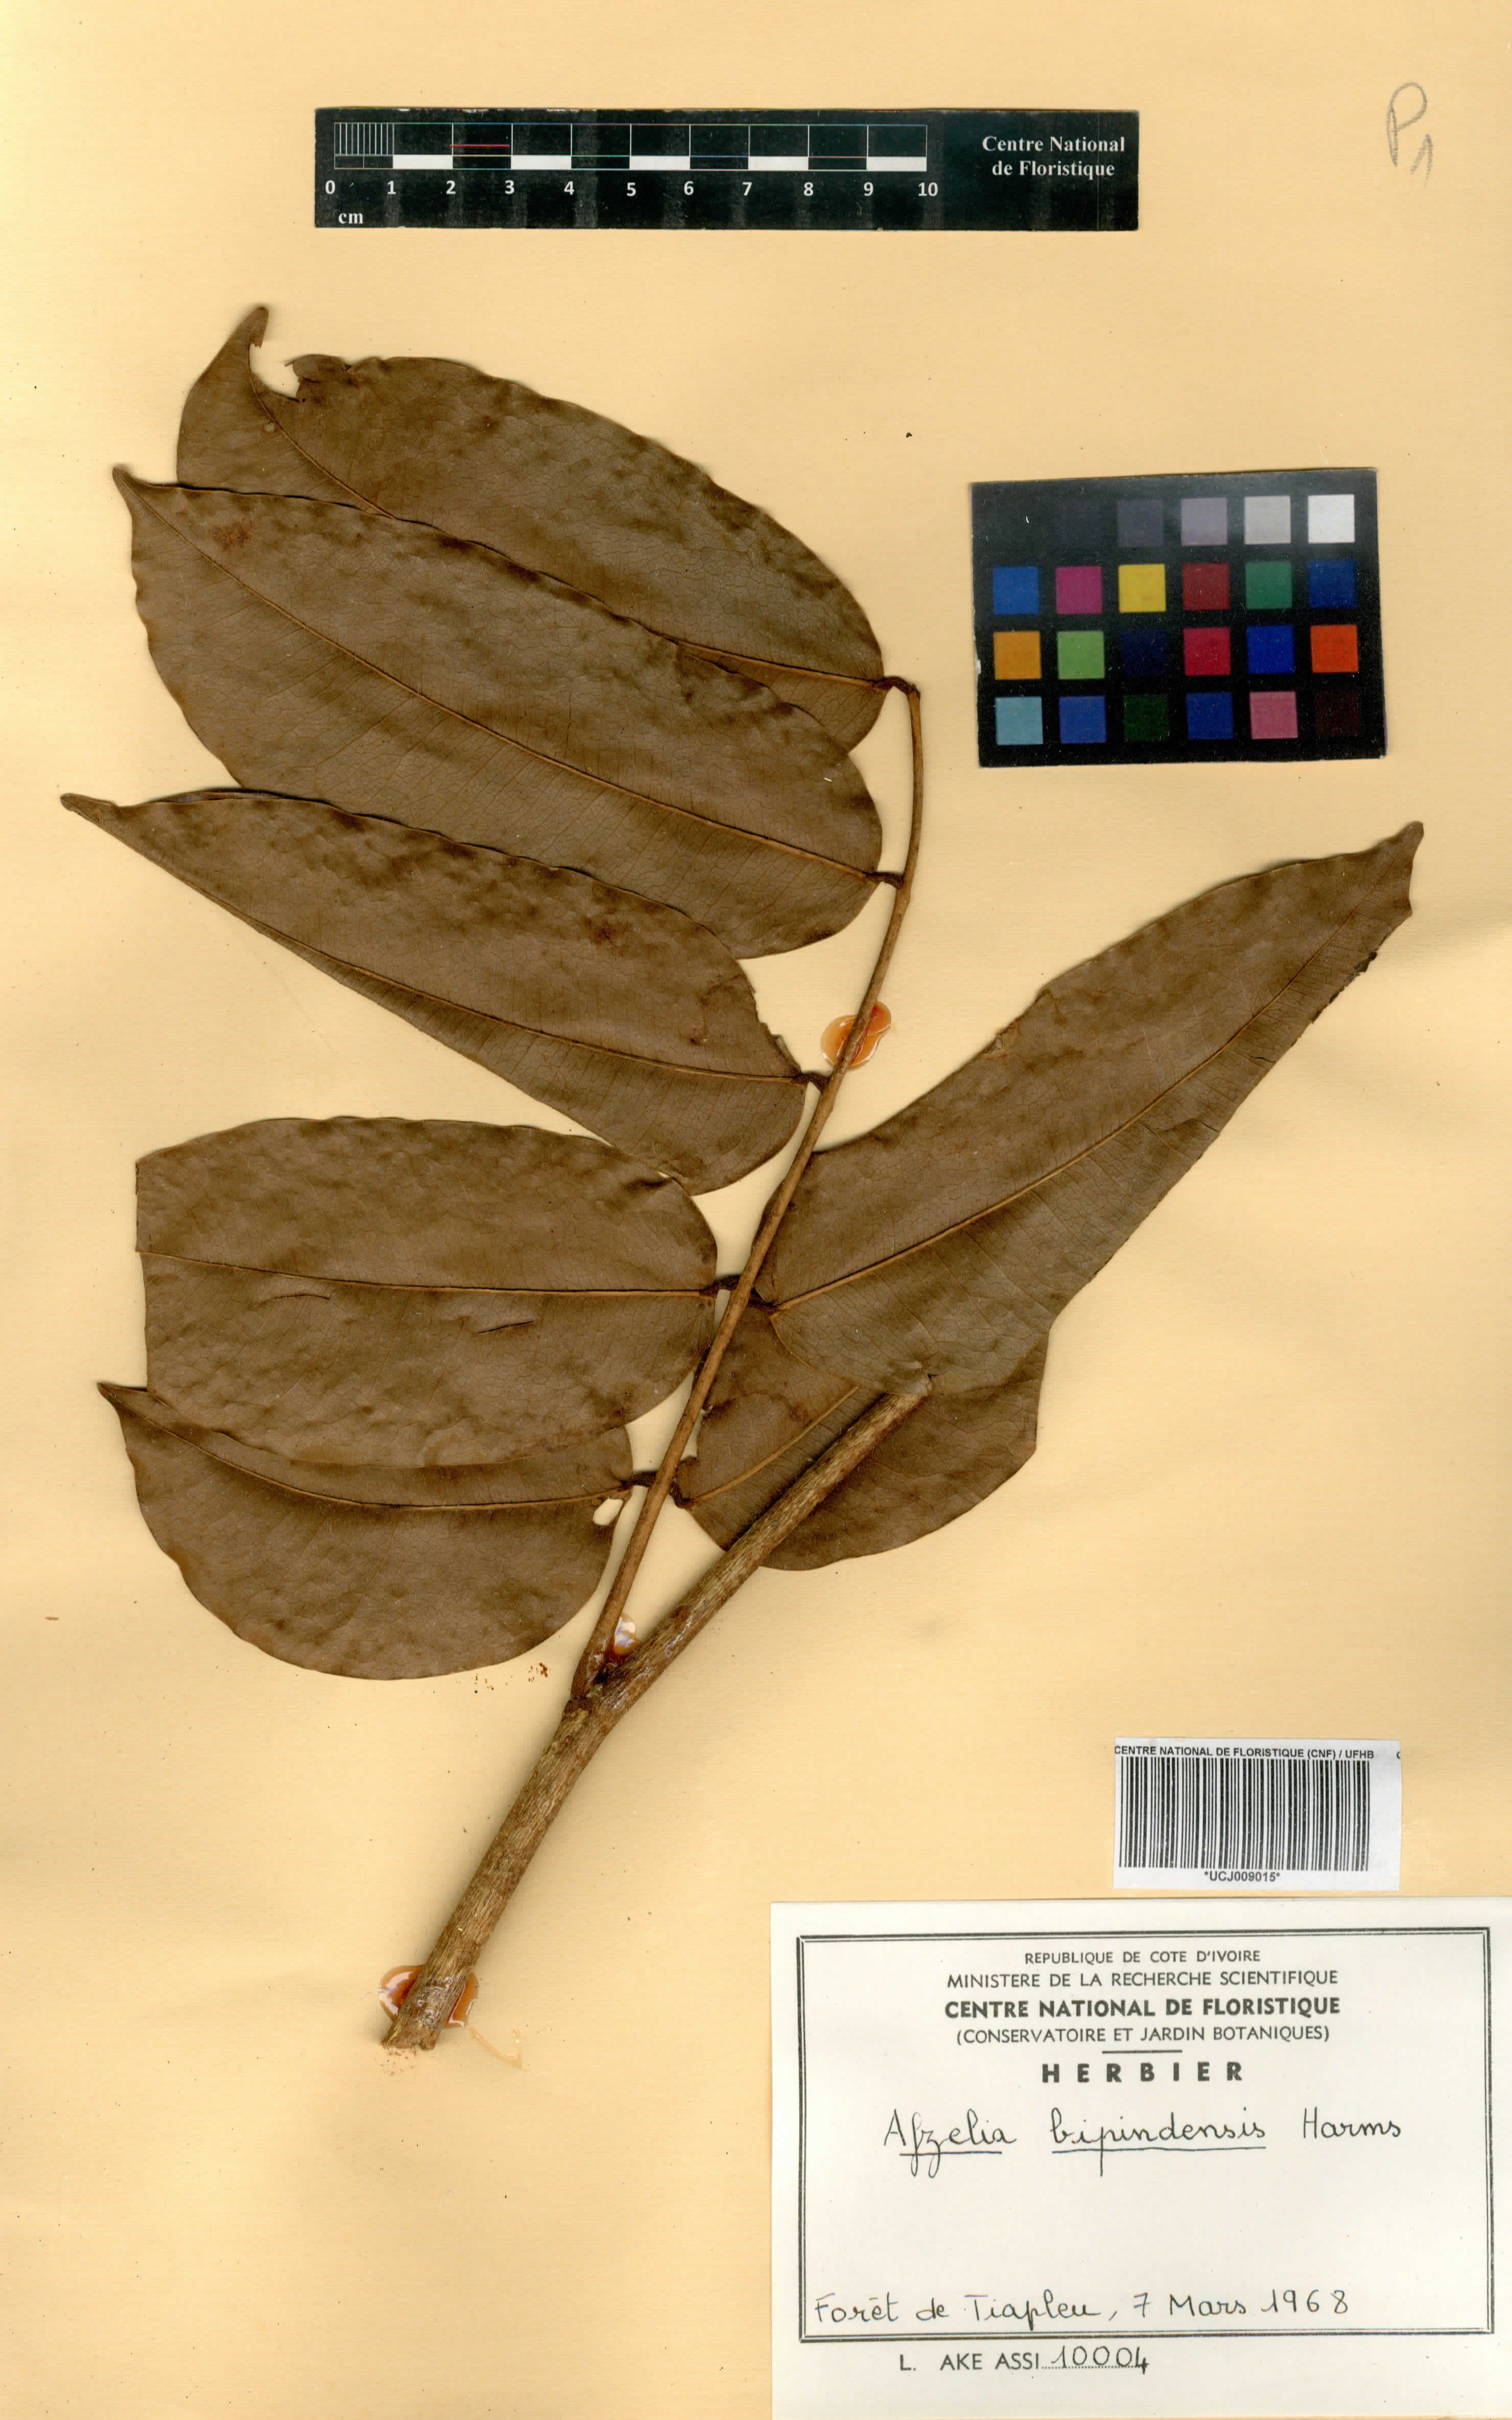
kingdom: Plantae
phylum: Tracheophyta
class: Magnoliopsida
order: Fabales
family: Fabaceae
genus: Afzelia
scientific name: Afzelia bipindensis
